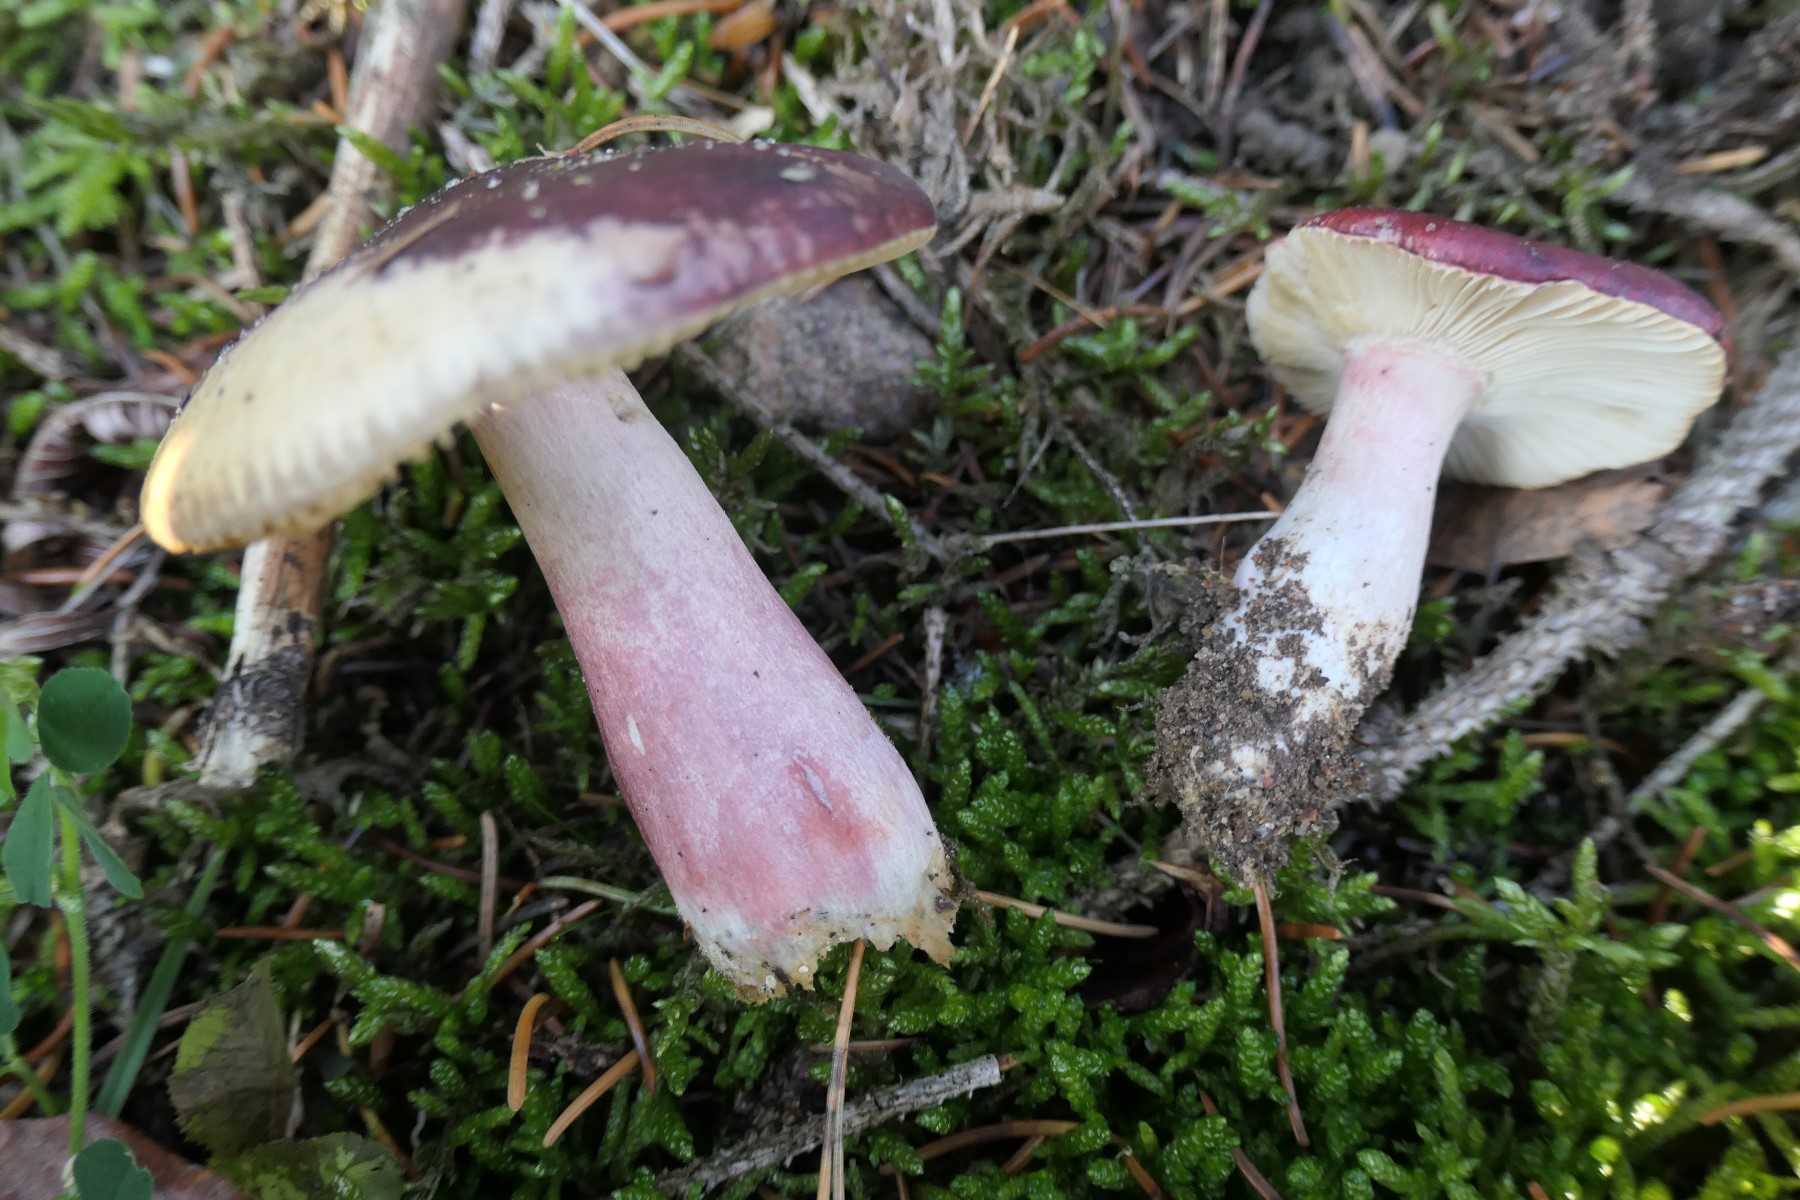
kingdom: Fungi
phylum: Basidiomycota
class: Agaricomycetes
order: Russulales
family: Russulaceae
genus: Russula
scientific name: Russula queletii
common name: Quélets skørhat
